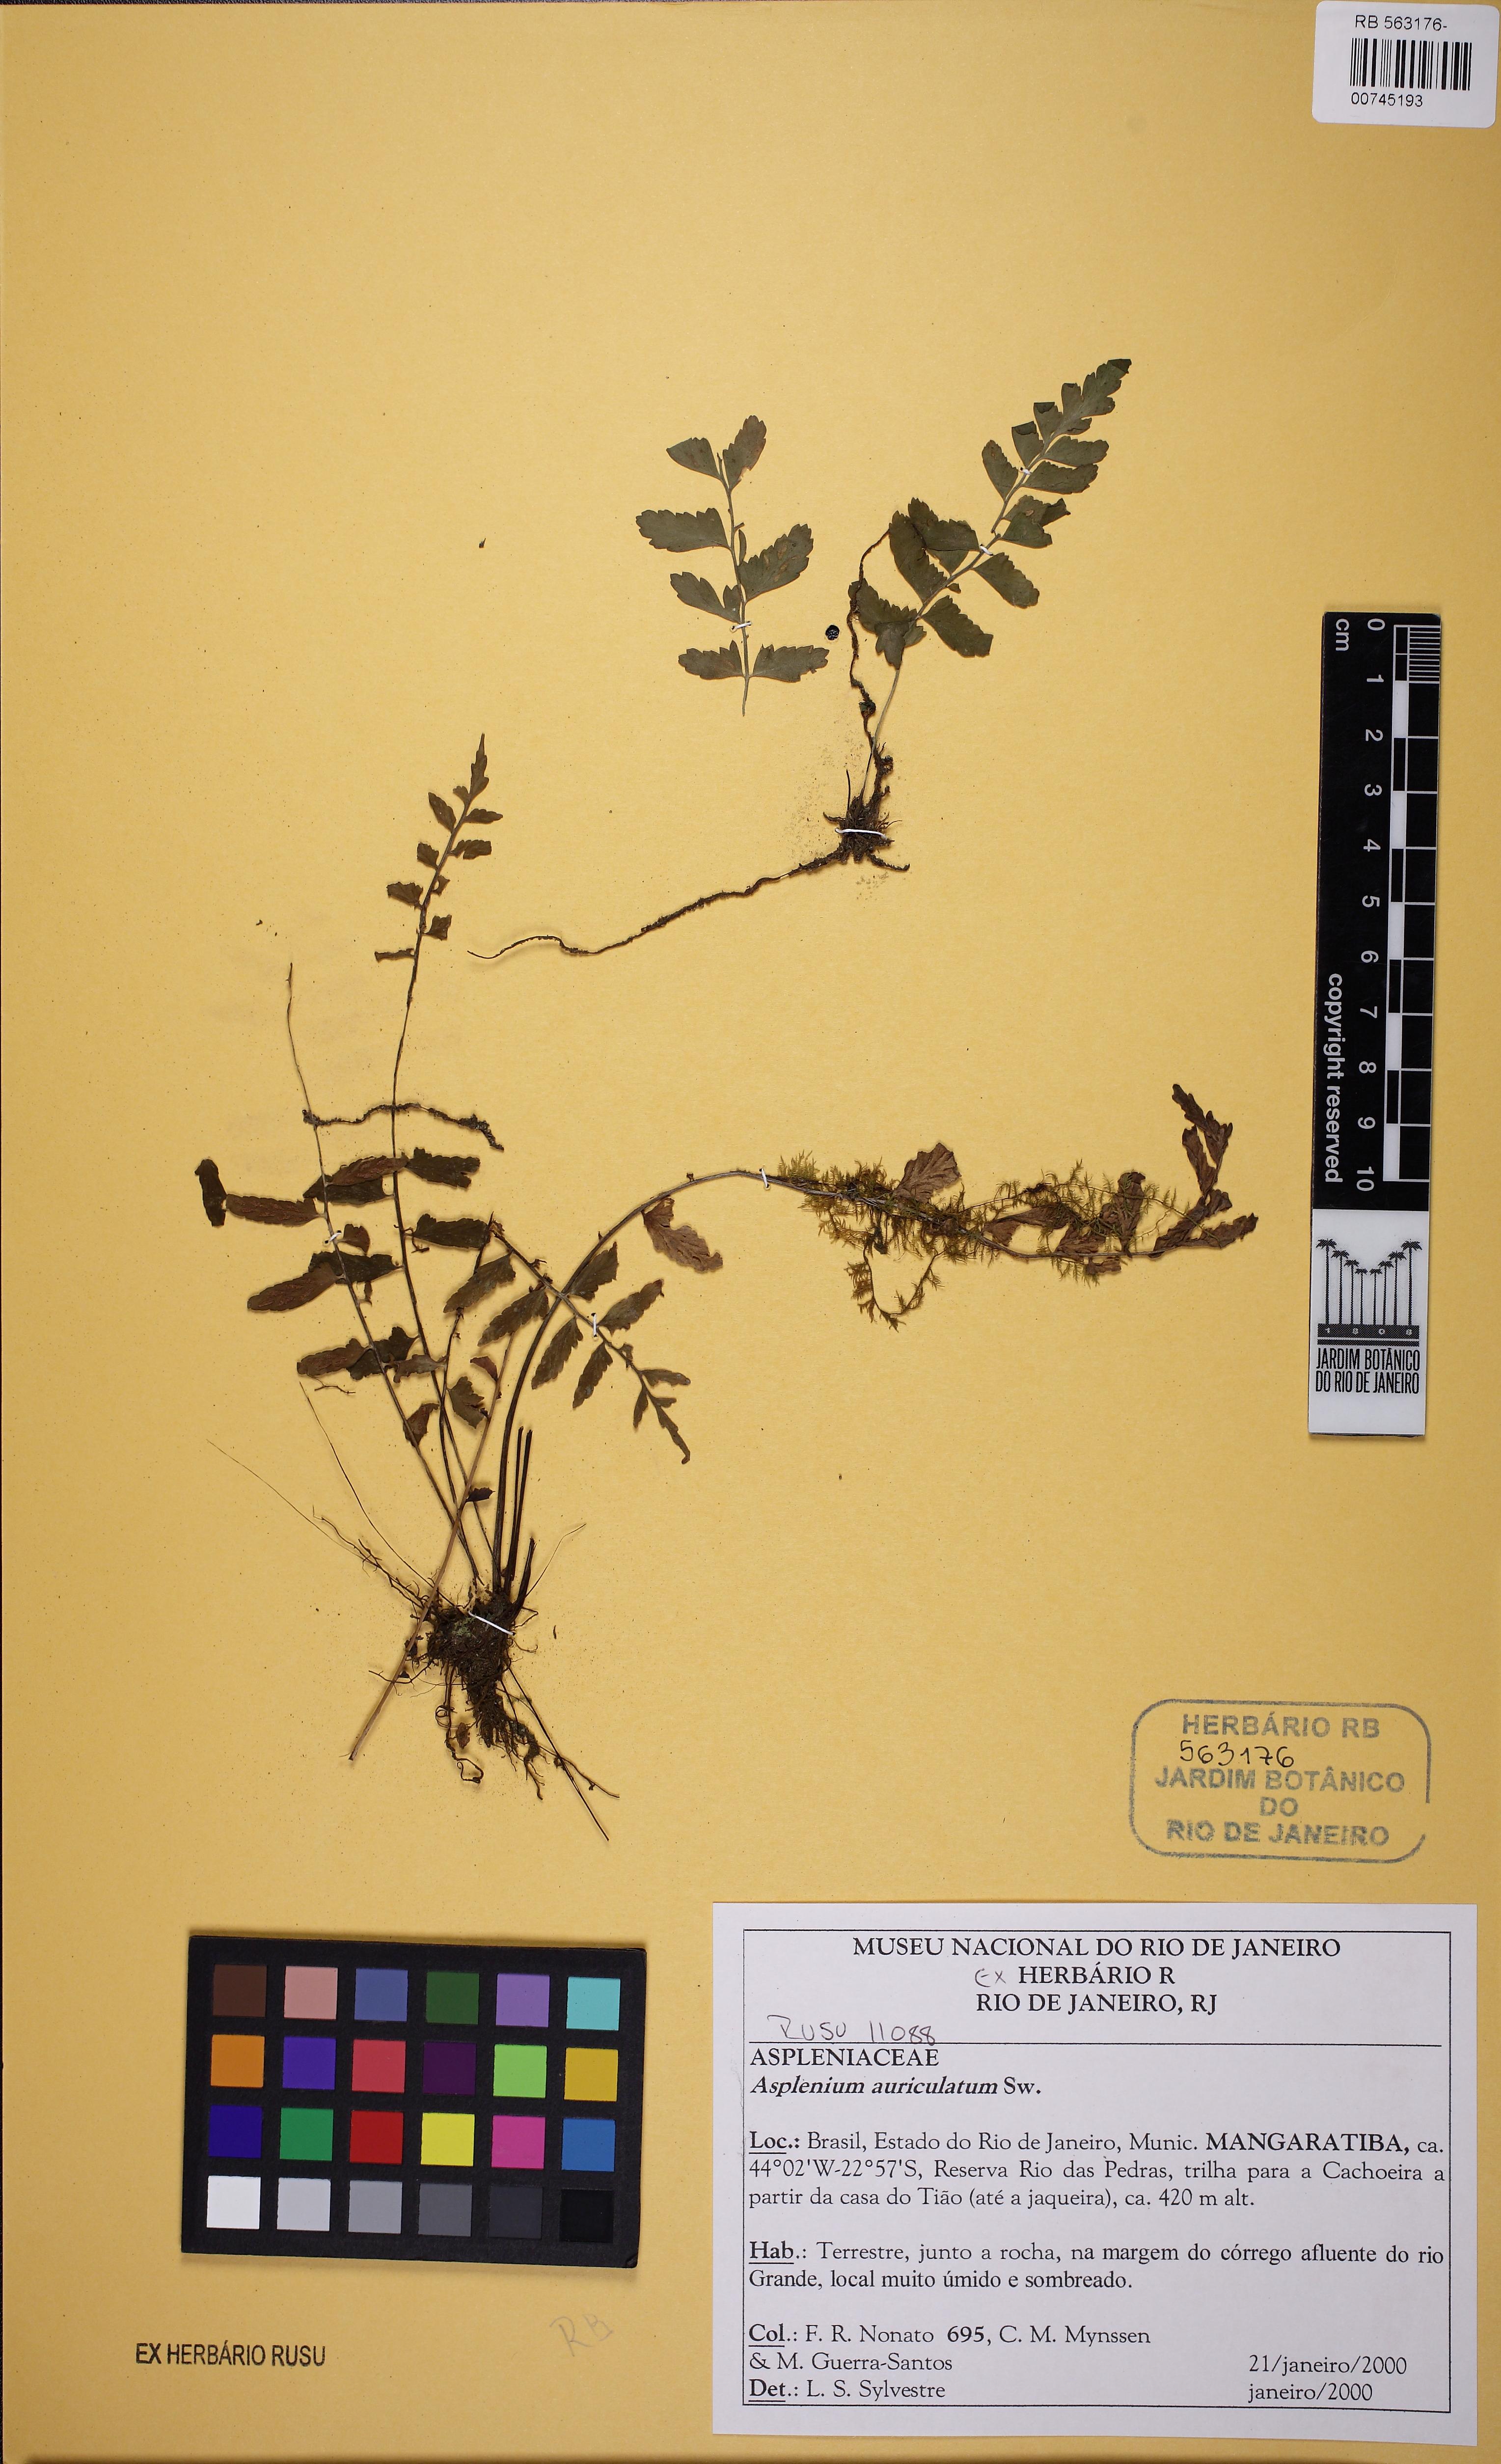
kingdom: Plantae
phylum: Tracheophyta
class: Polypodiopsida
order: Polypodiales
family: Aspleniaceae
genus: Asplenium
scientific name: Asplenium auriculatum
